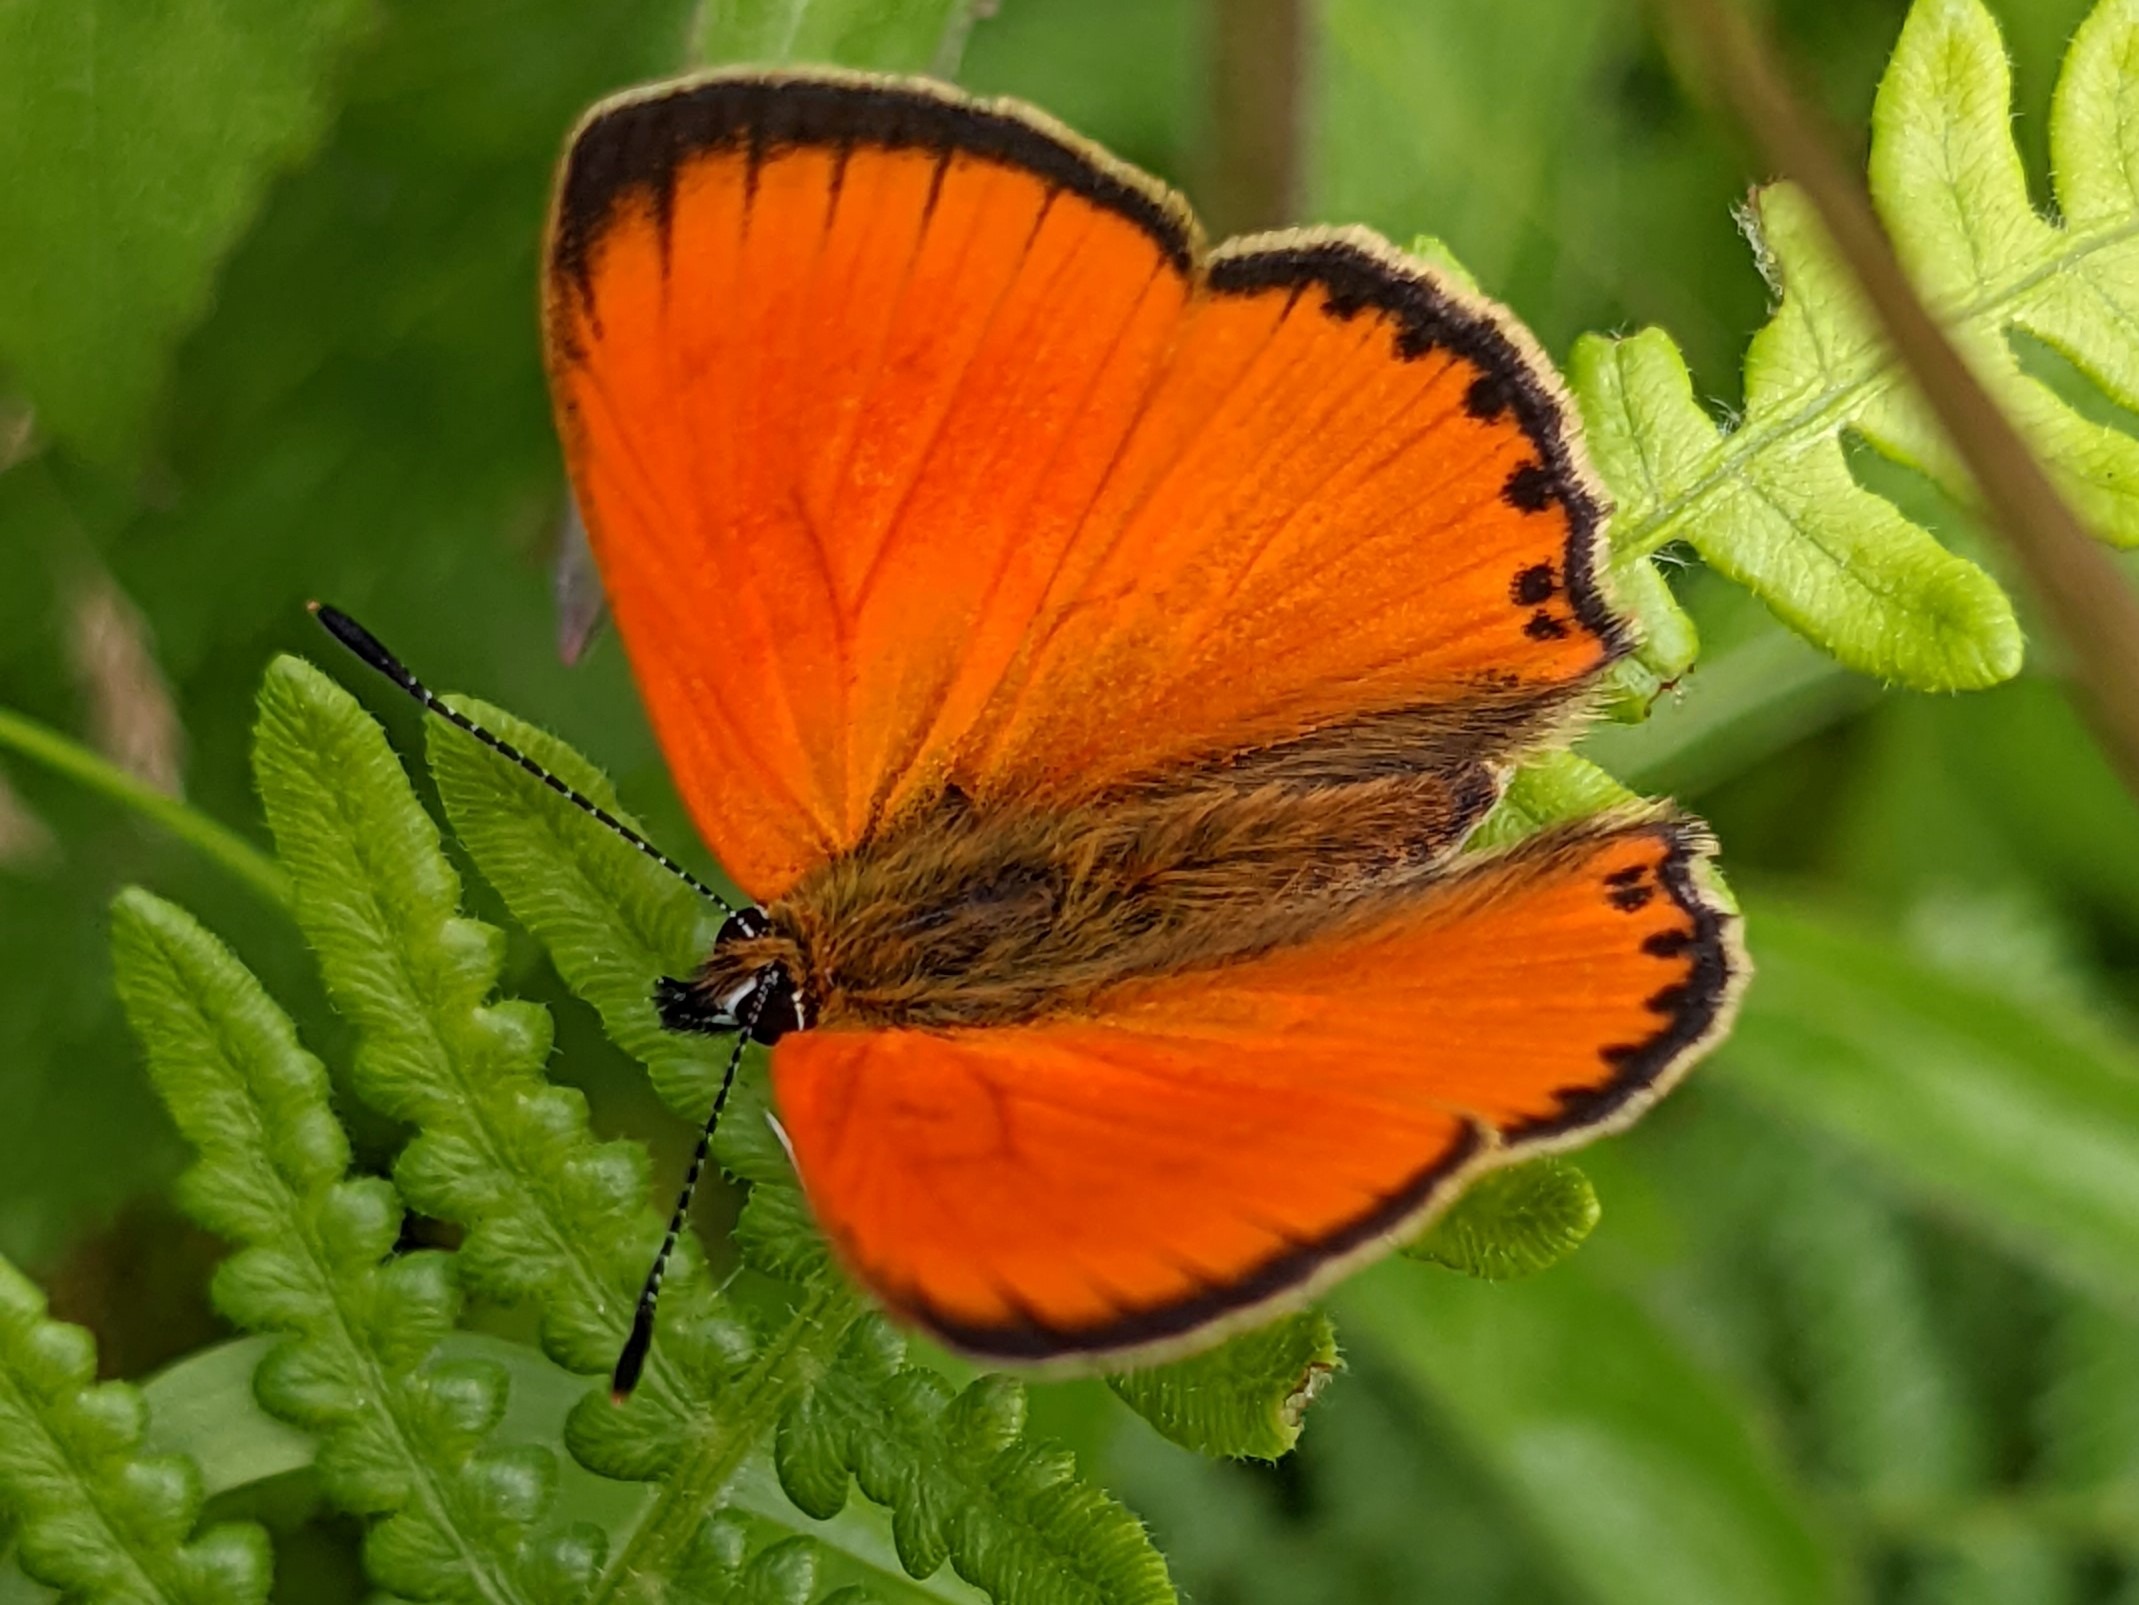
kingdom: Animalia
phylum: Arthropoda
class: Insecta
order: Lepidoptera
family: Lycaenidae
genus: Lycaena
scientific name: Lycaena virgaureae
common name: Dukatsommerfugl
